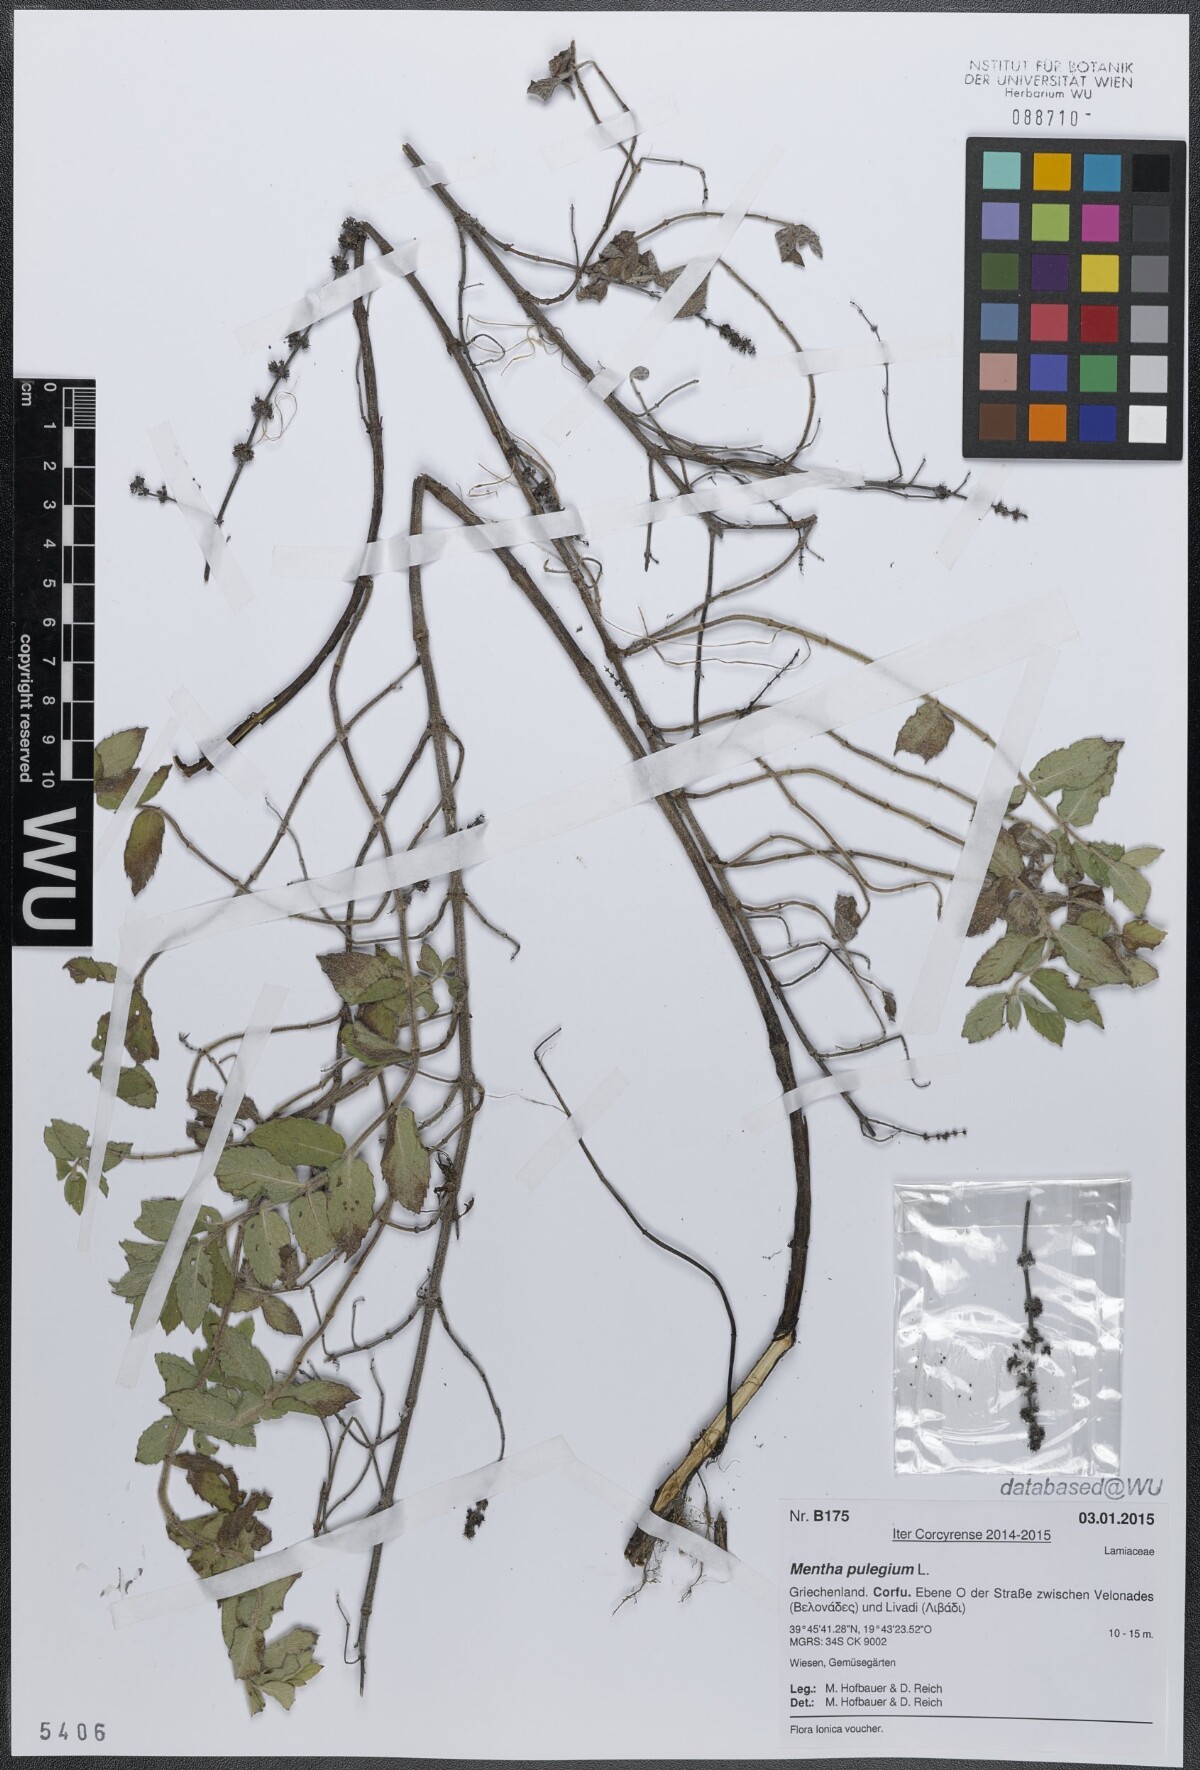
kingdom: Plantae
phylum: Tracheophyta
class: Magnoliopsida
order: Lamiales
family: Lamiaceae
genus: Mentha
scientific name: Mentha pulegium
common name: Pennyroyal
